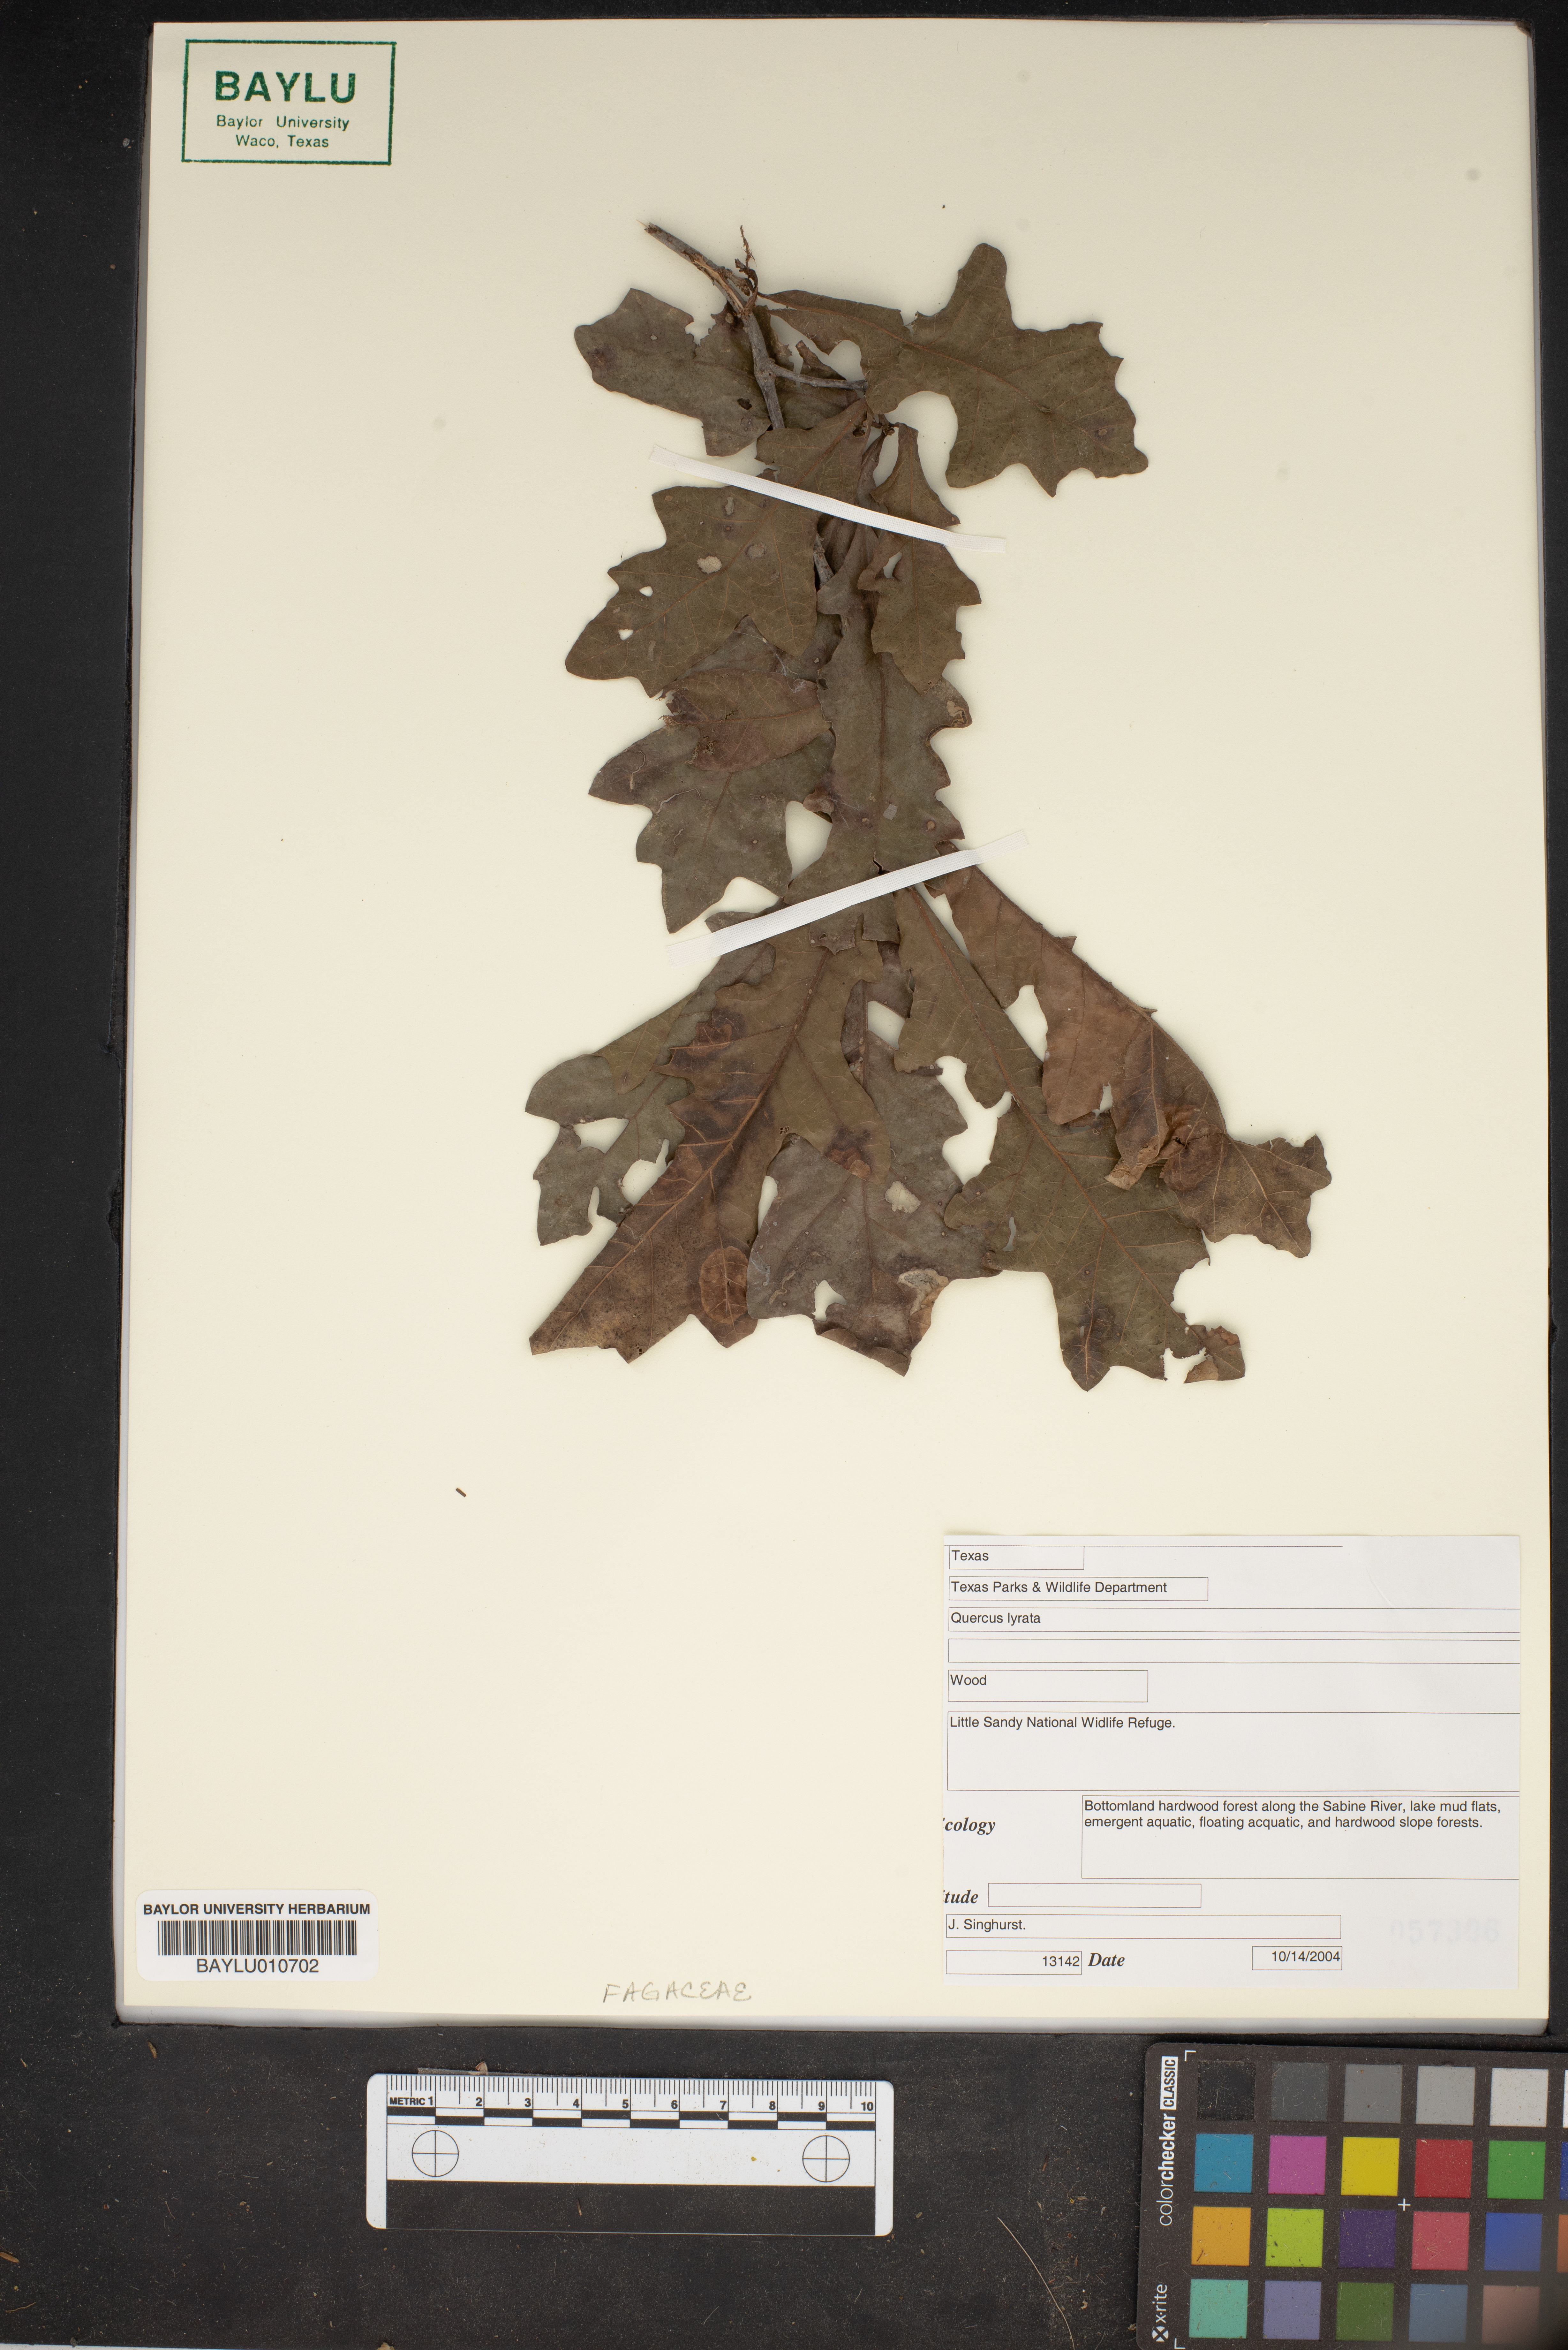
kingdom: Plantae
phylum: Tracheophyta
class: Magnoliopsida
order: Fagales
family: Fagaceae
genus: Quercus
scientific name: Quercus lyrata
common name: Overcup oak
